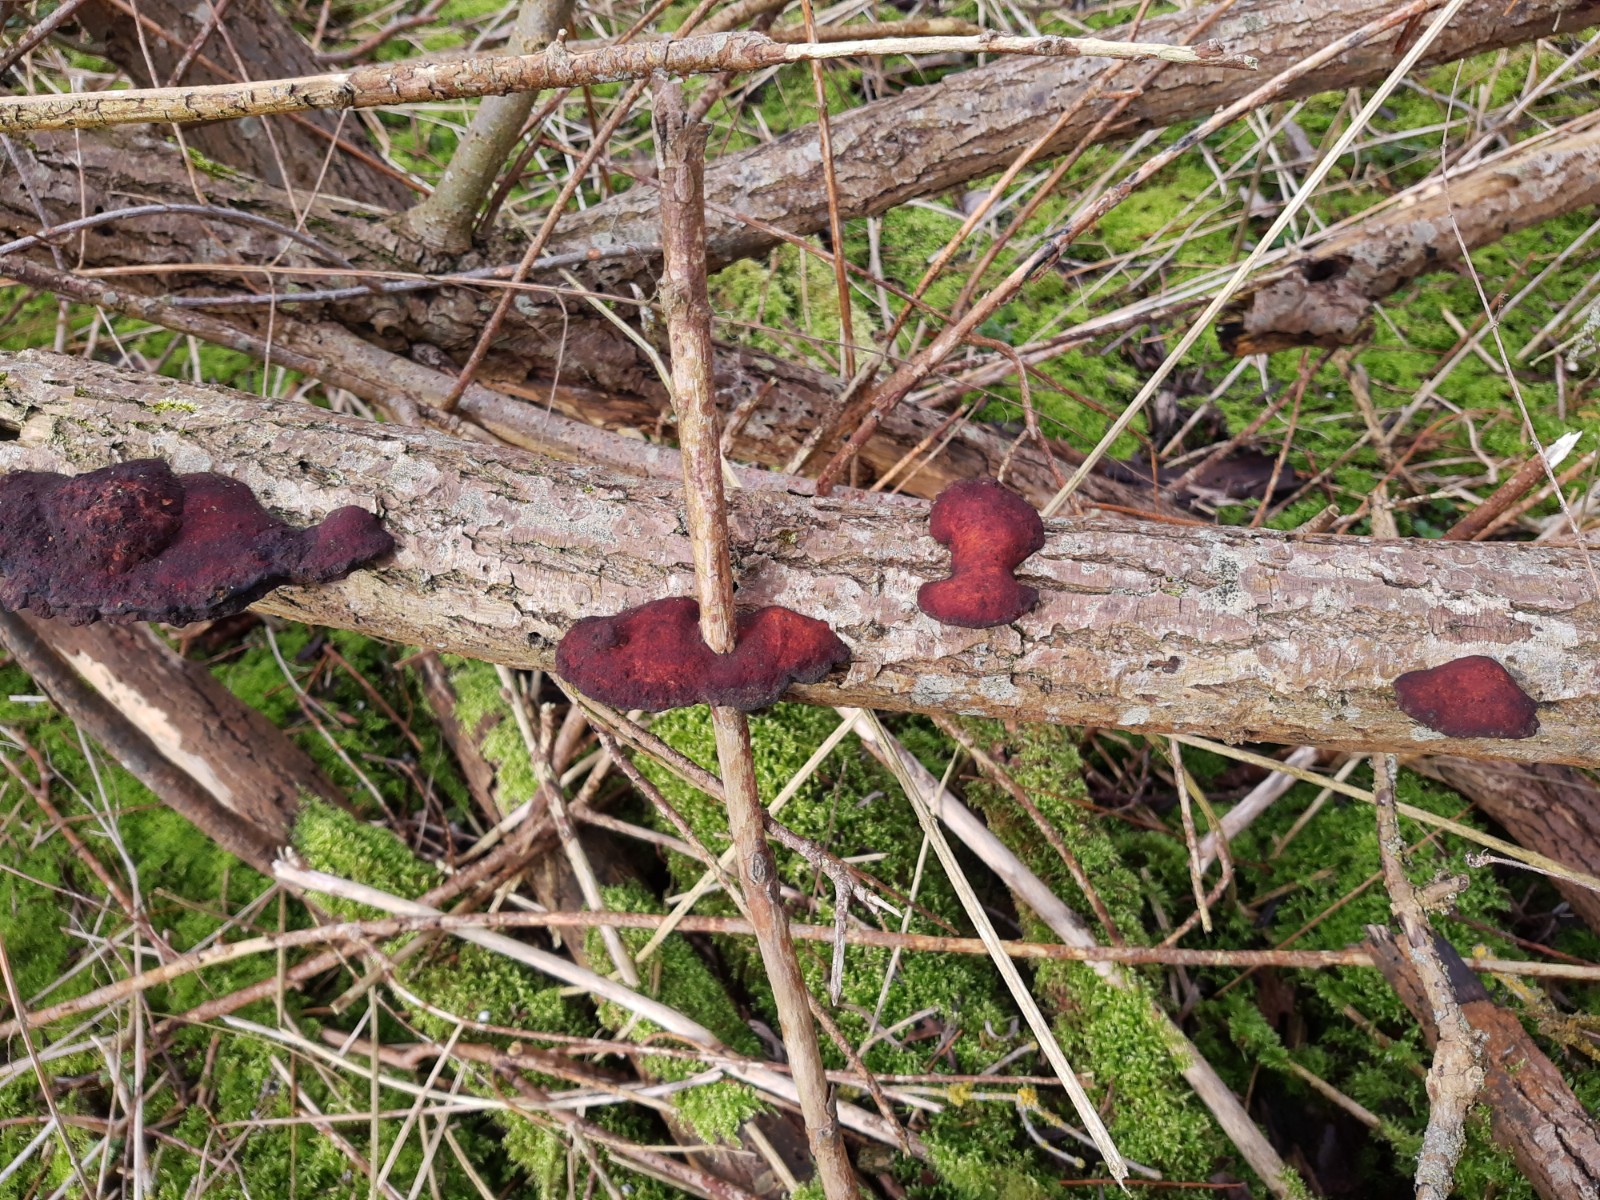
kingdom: Fungi
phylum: Basidiomycota
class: Agaricomycetes
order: Polyporales
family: Polyporaceae
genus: Daedaleopsis
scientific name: Daedaleopsis confragosa
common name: rødmende læderporesvamp
